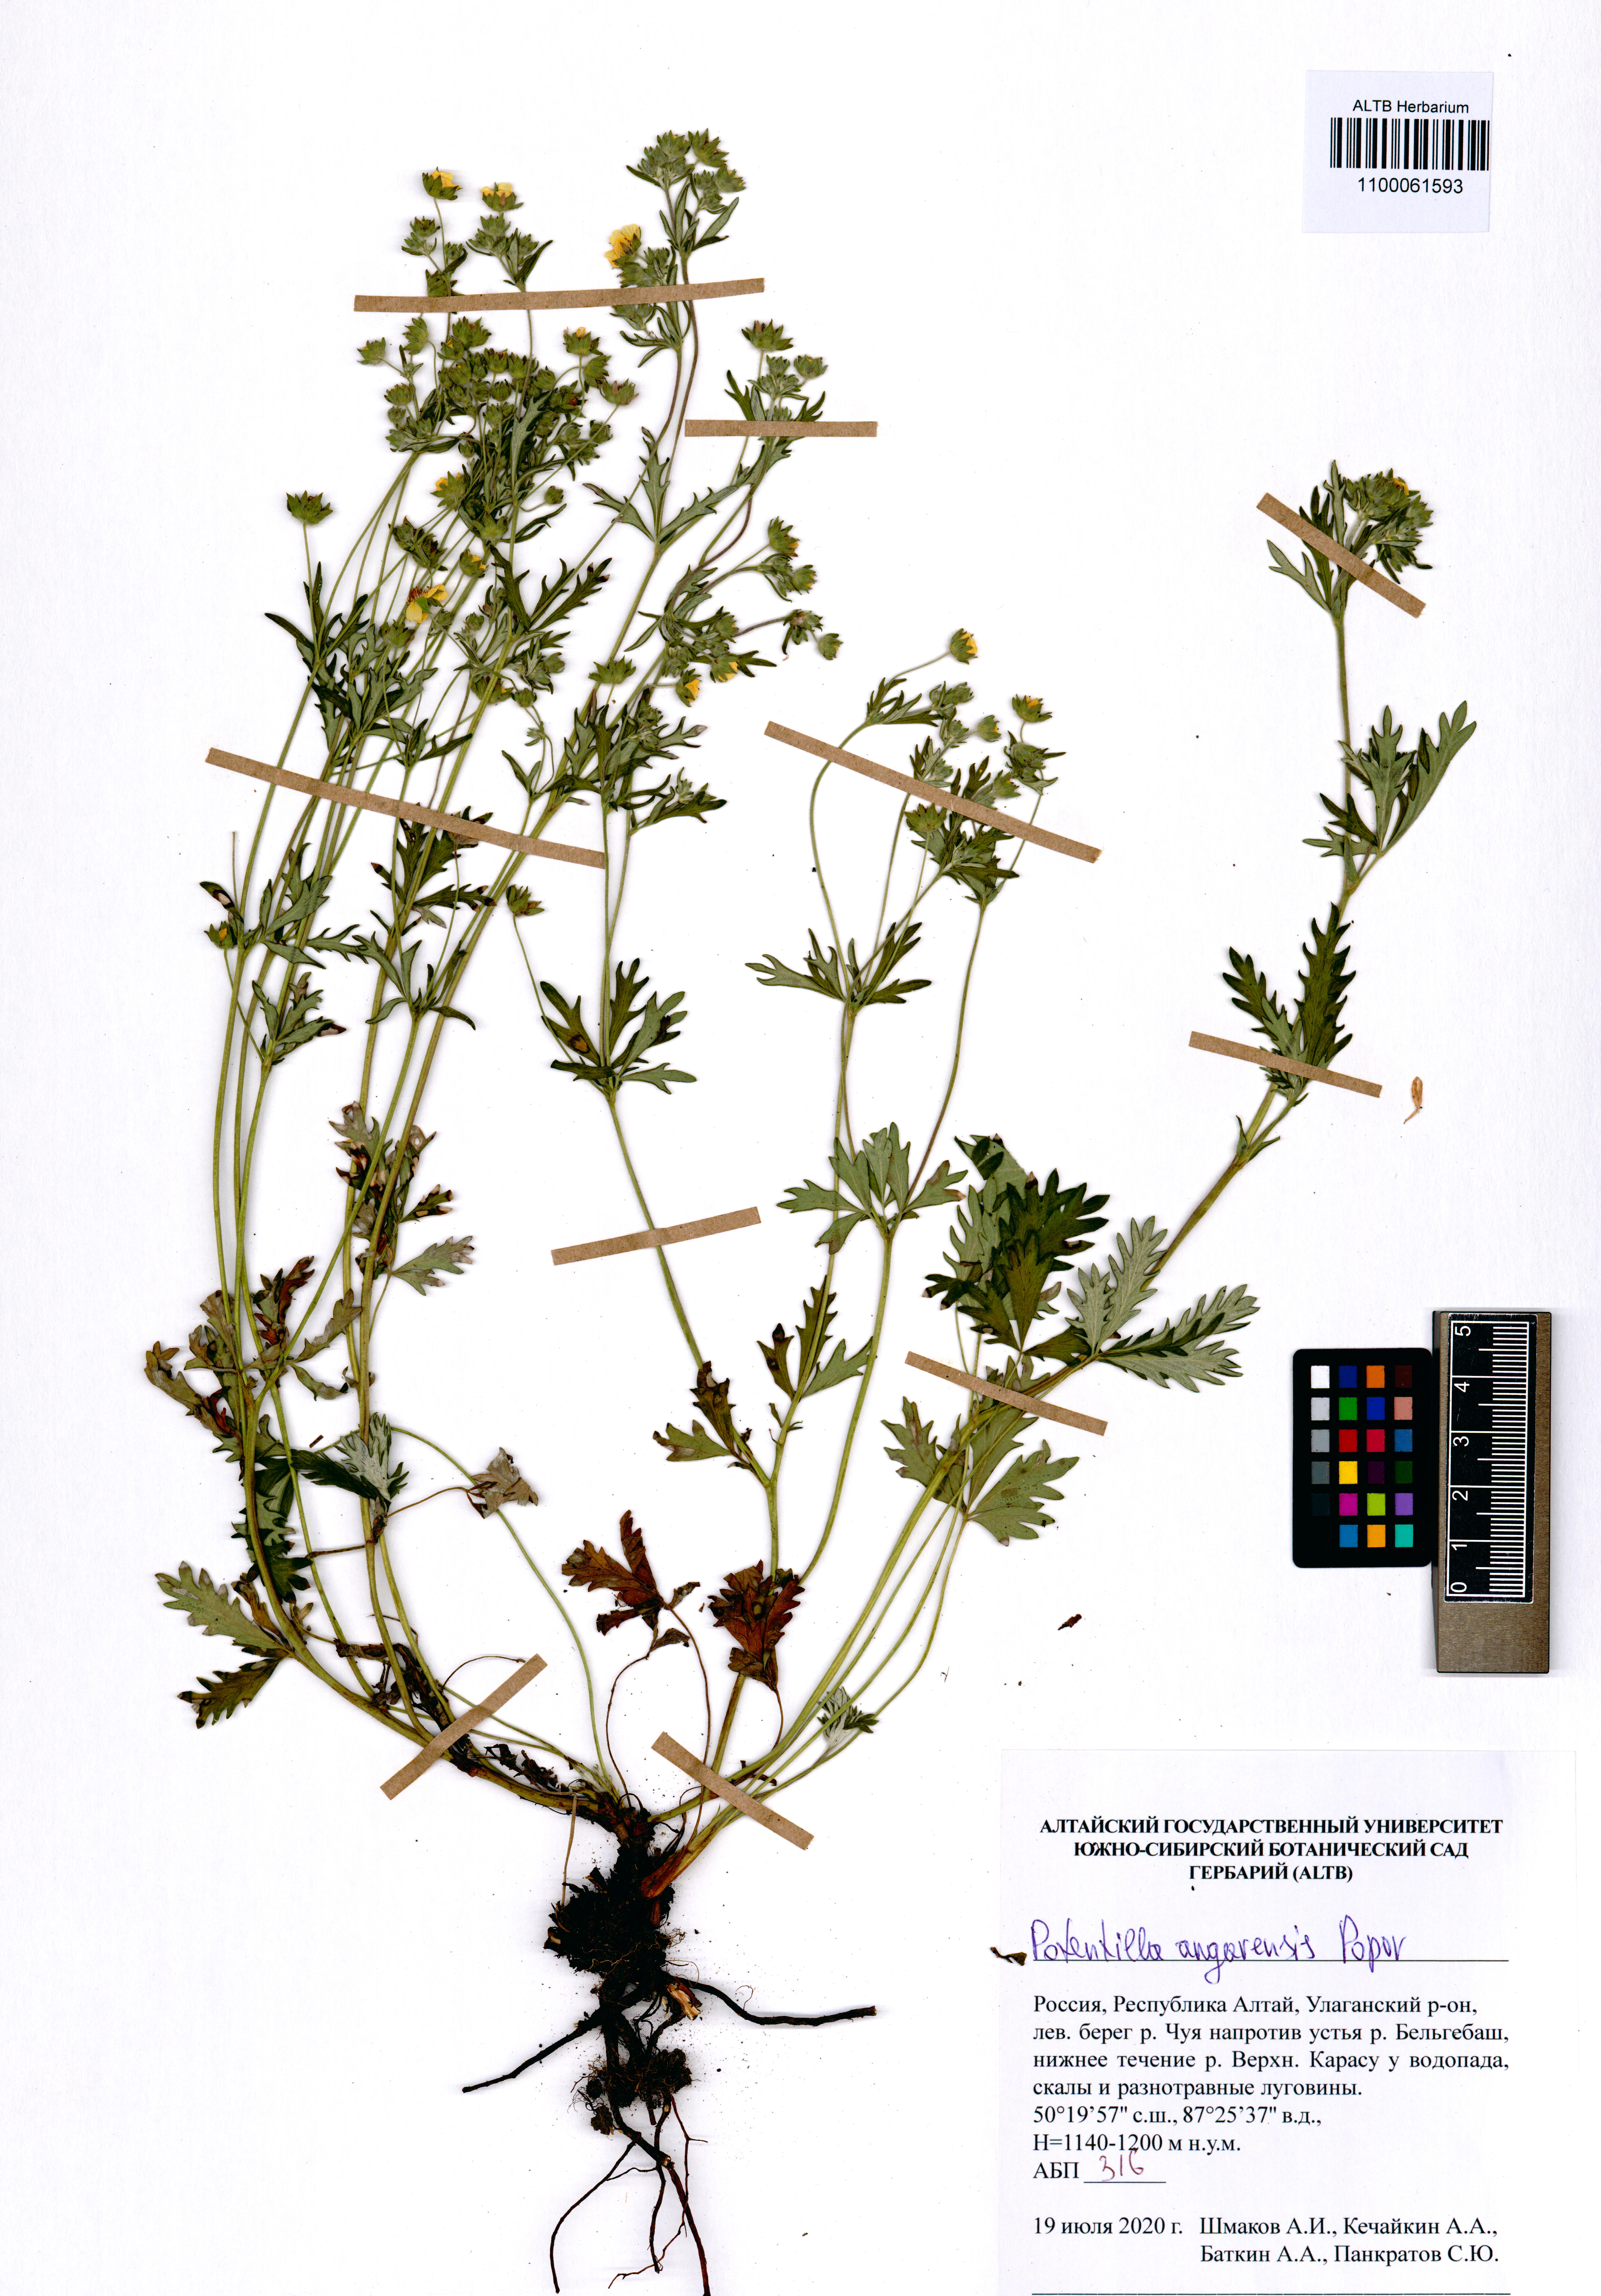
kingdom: Plantae
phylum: Tracheophyta
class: Magnoliopsida
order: Rosales
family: Rosaceae
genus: Potentilla
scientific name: Potentilla angarensis
